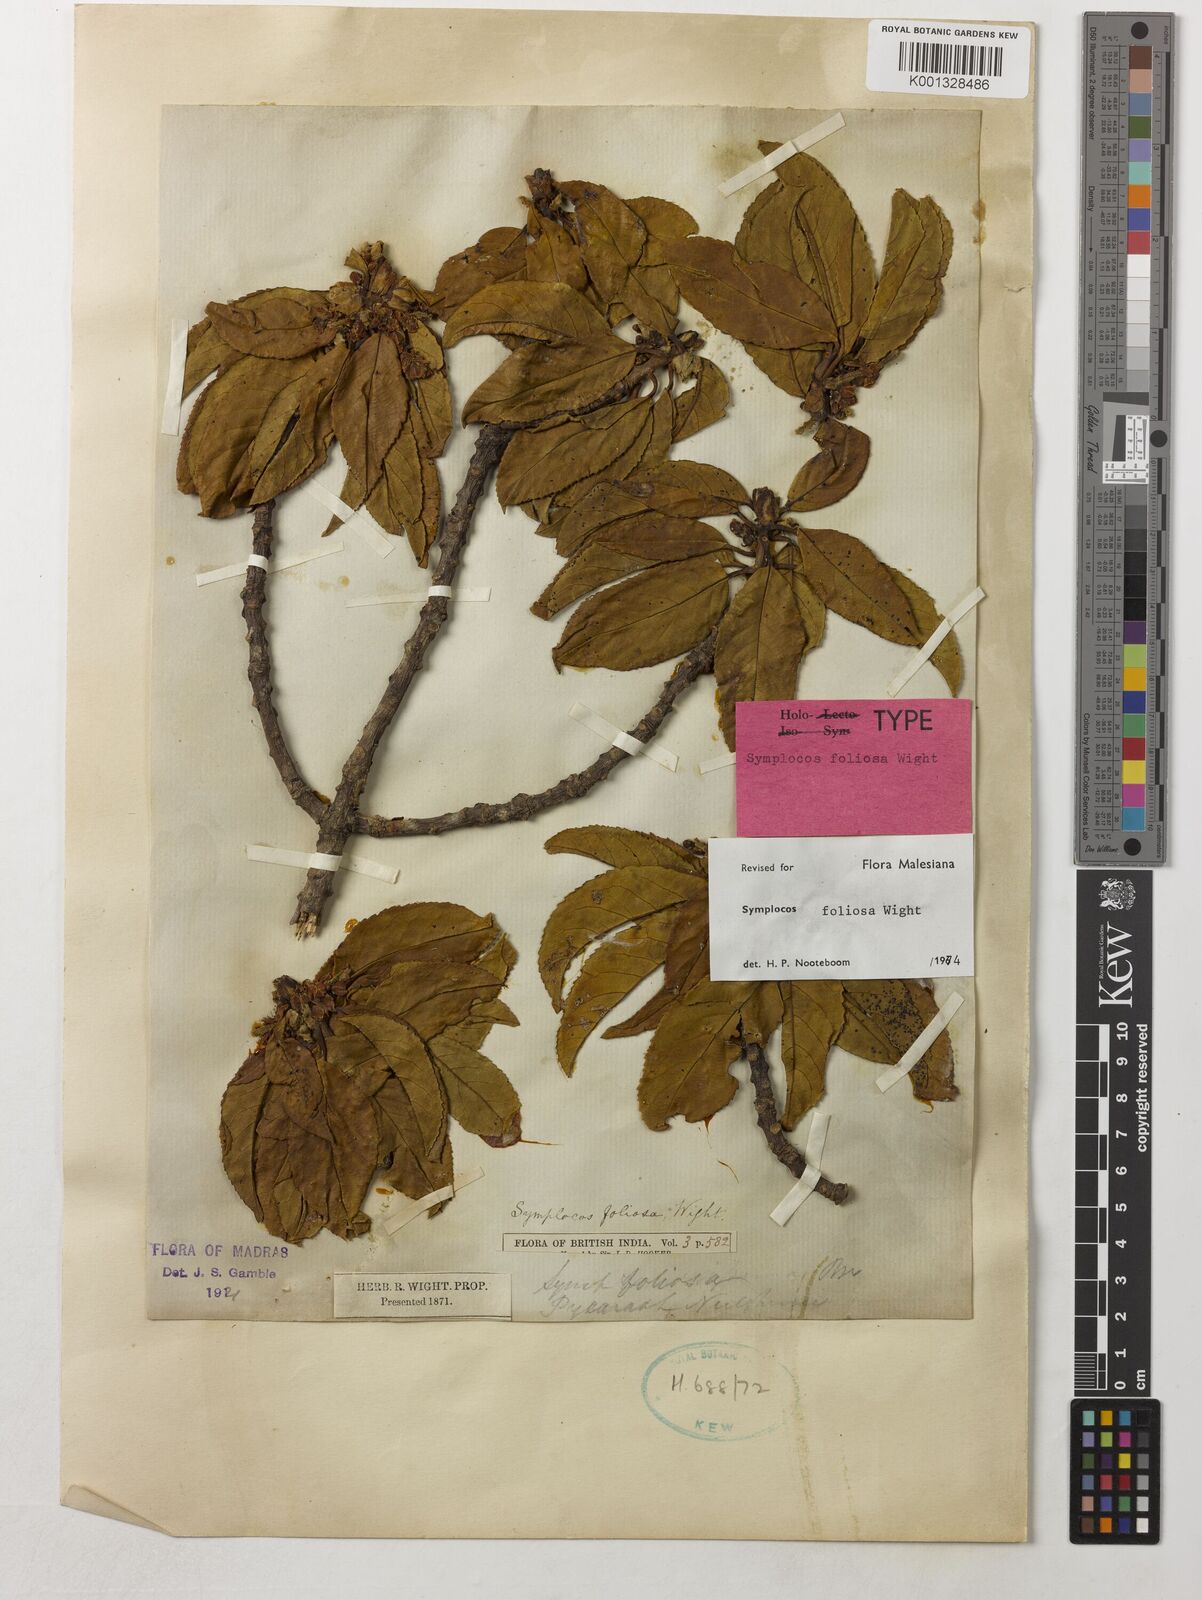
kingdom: Plantae
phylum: Tracheophyta
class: Magnoliopsida
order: Ericales
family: Symplocaceae
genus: Symplocos
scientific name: Symplocos foliosa
